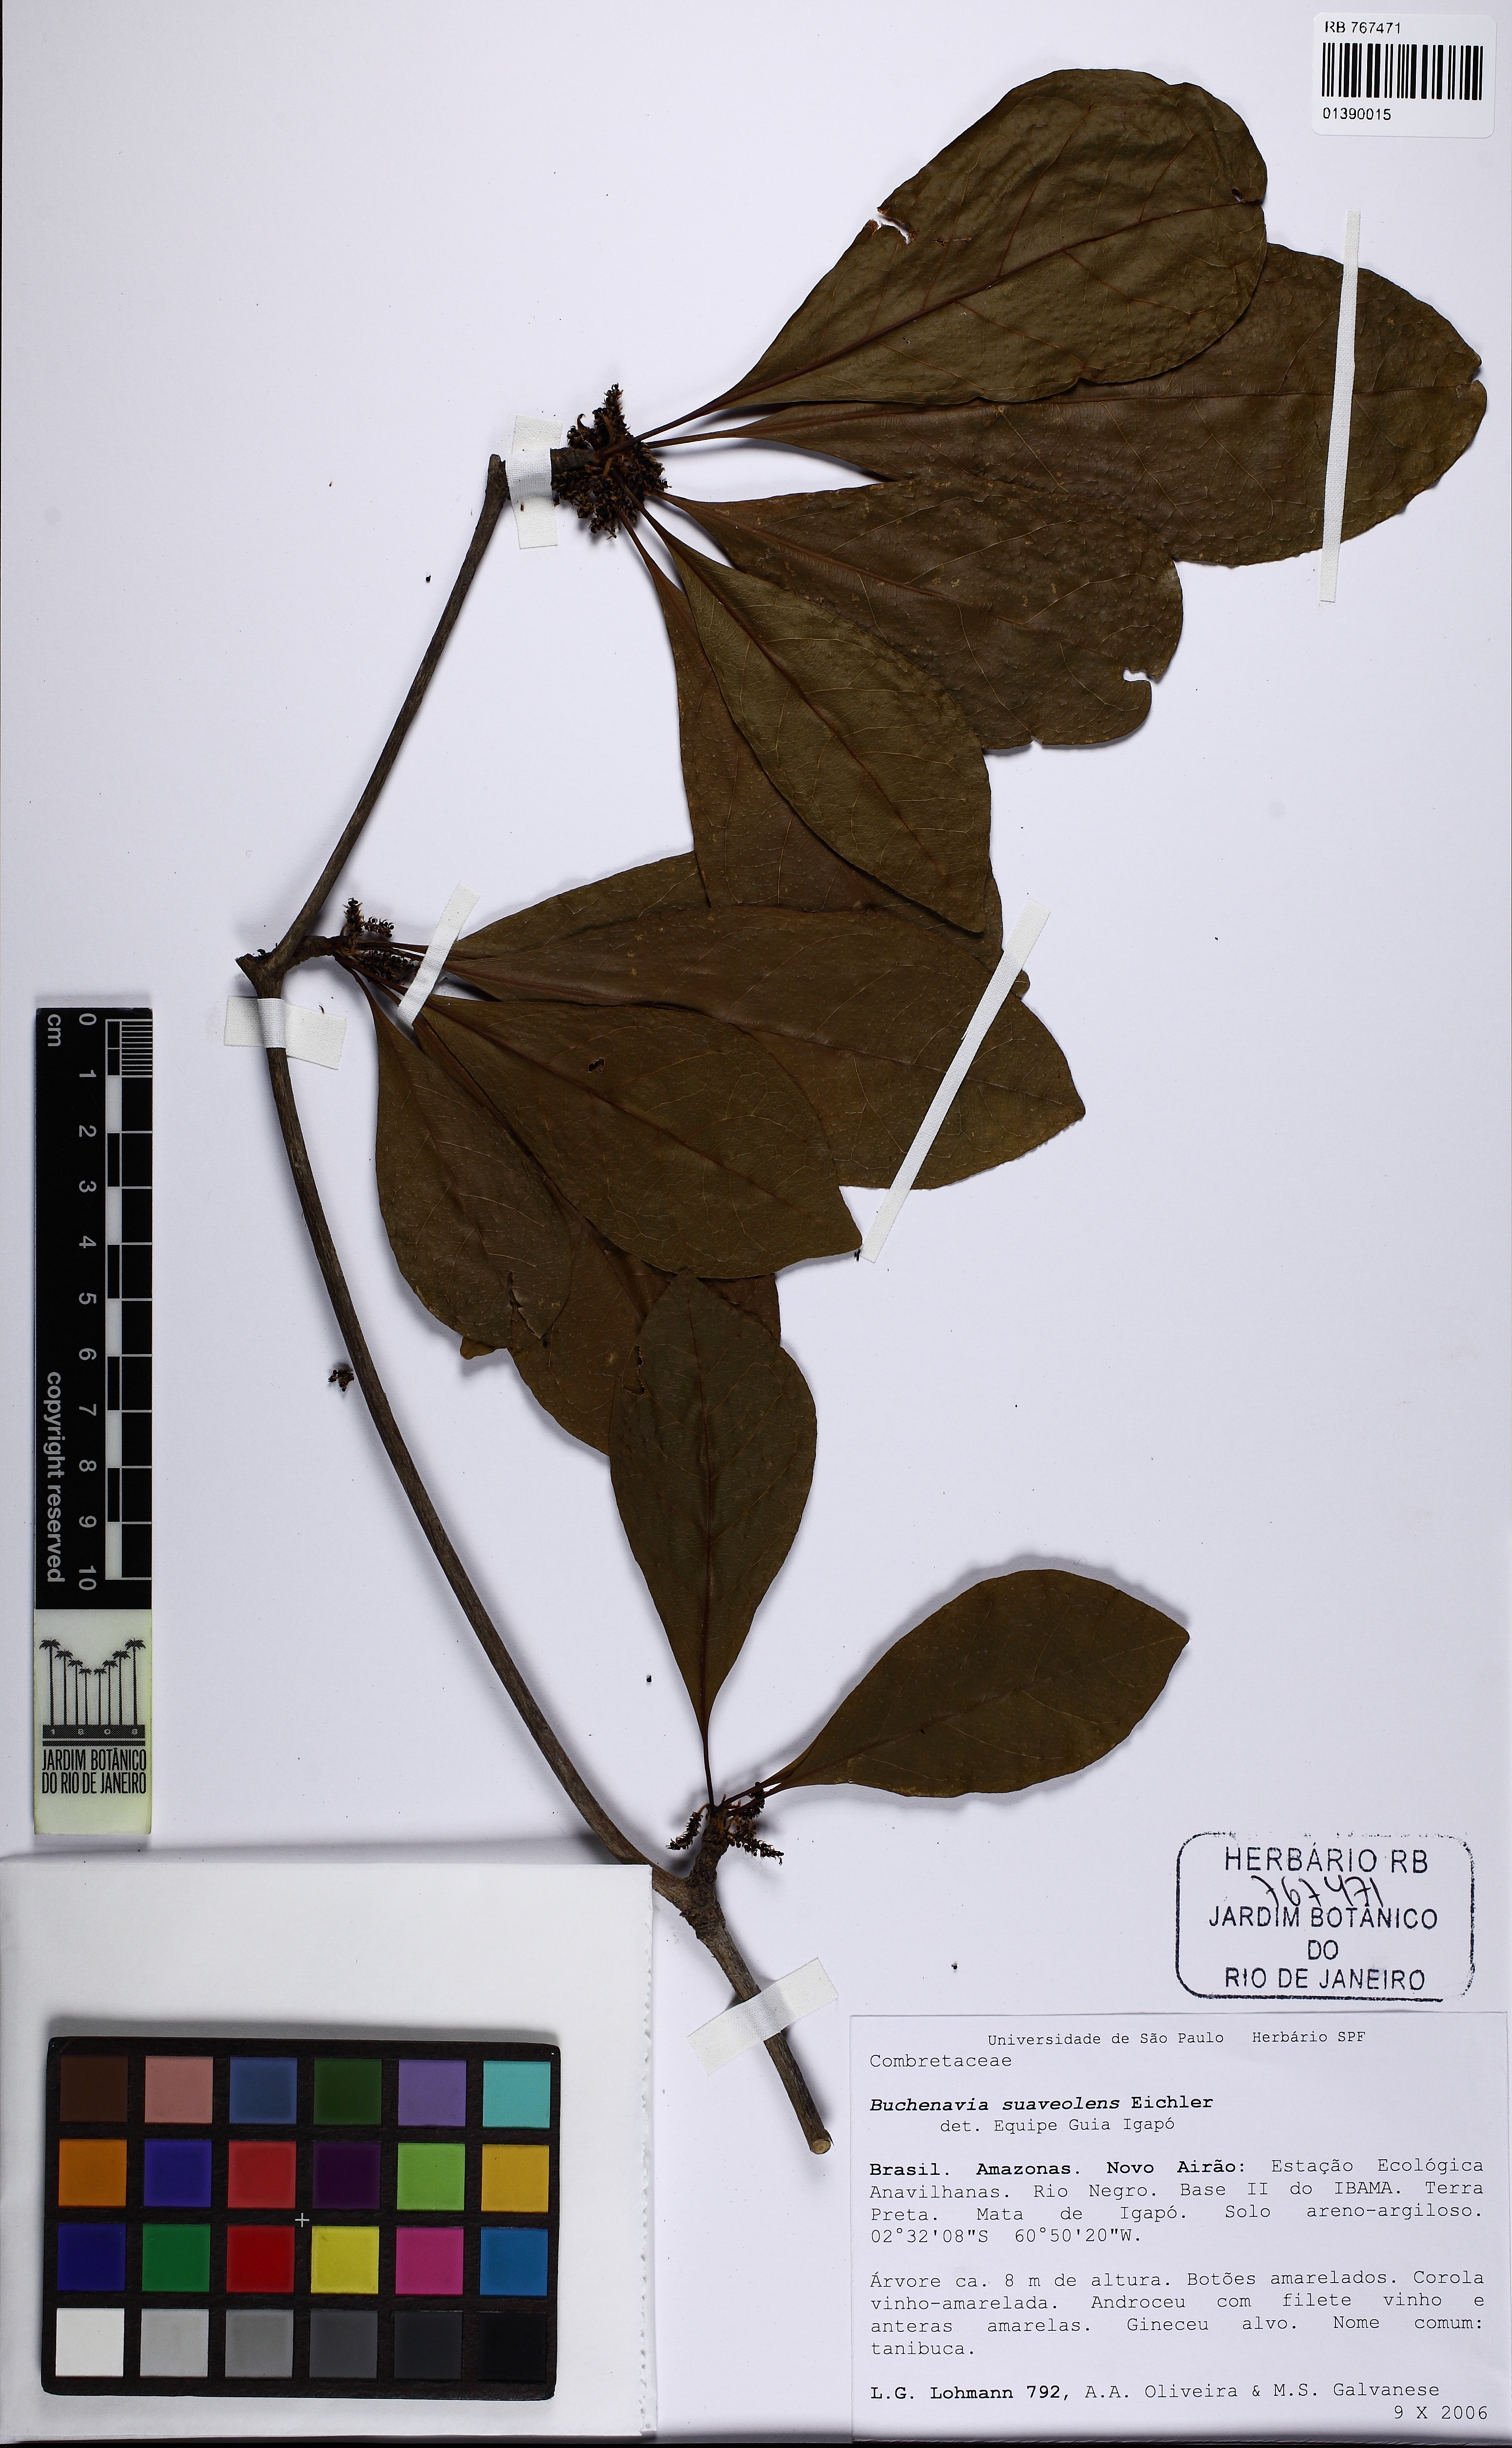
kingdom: Plantae
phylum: Tracheophyta
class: Magnoliopsida
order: Myrtales
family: Combretaceae
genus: Terminalia
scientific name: Terminalia suaveolens
